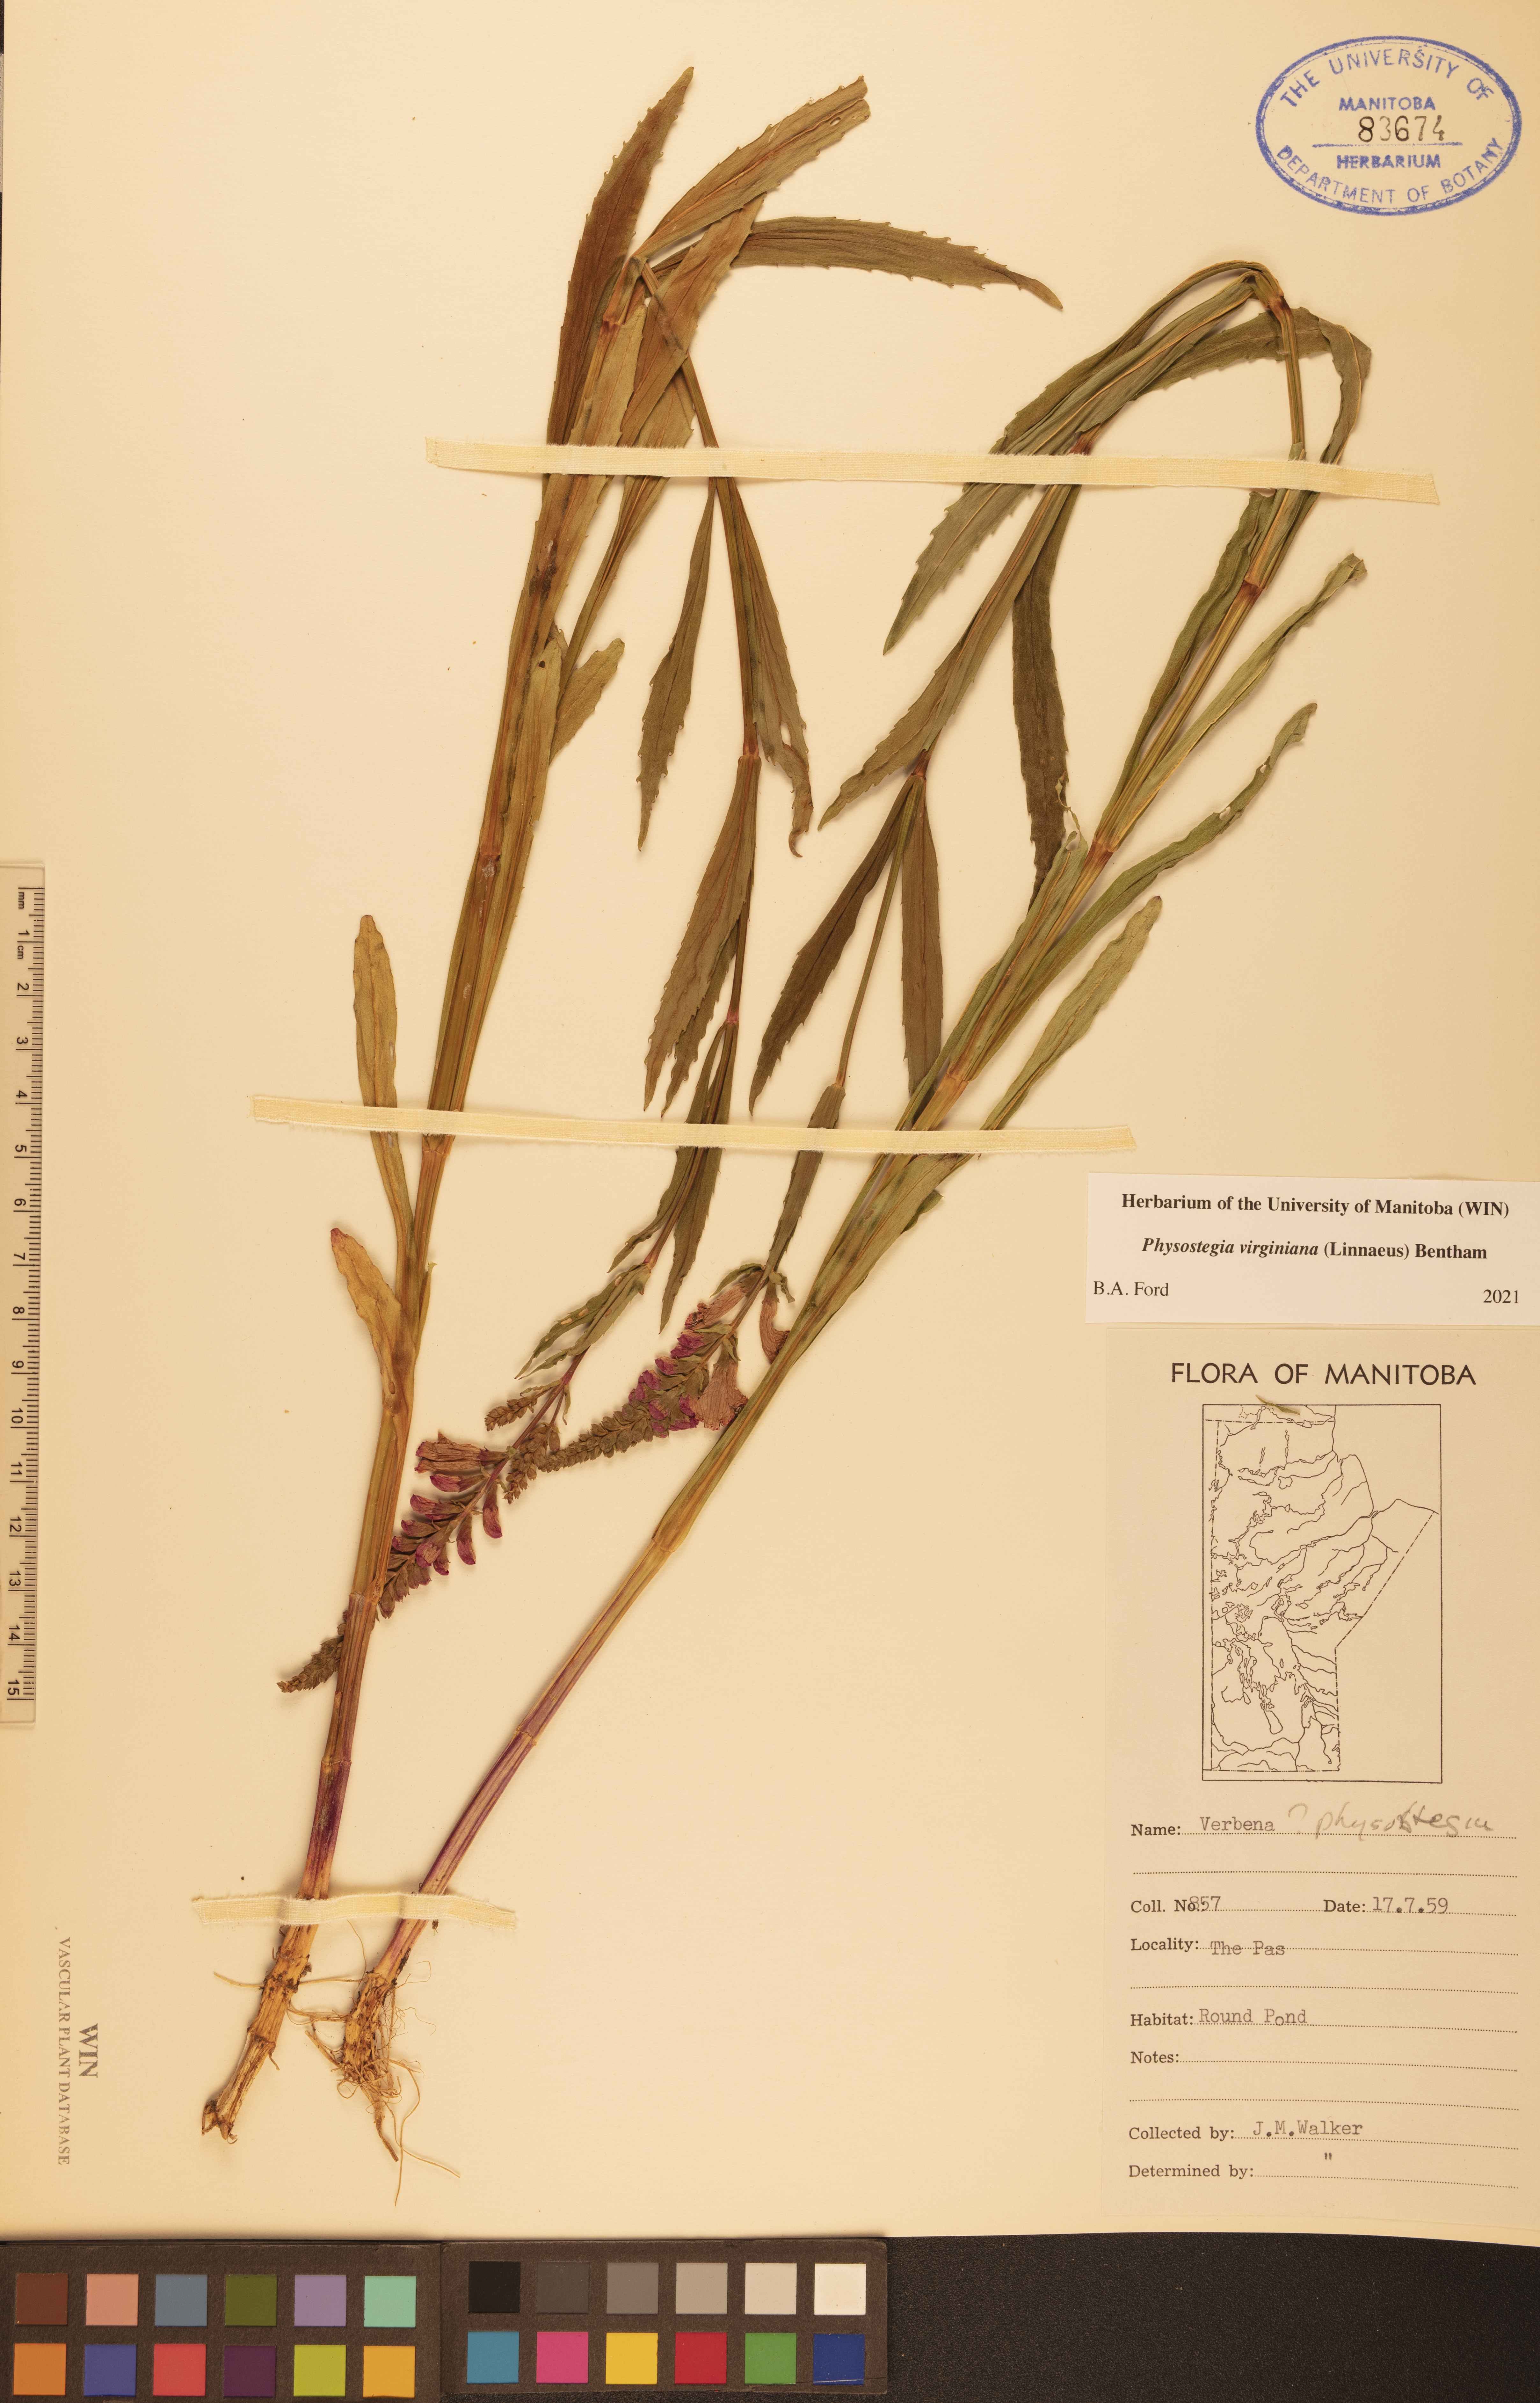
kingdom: Plantae
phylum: Tracheophyta
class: Magnoliopsida
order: Lamiales
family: Lamiaceae
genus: Physostegia
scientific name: Physostegia virginiana
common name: Obedient-plant
